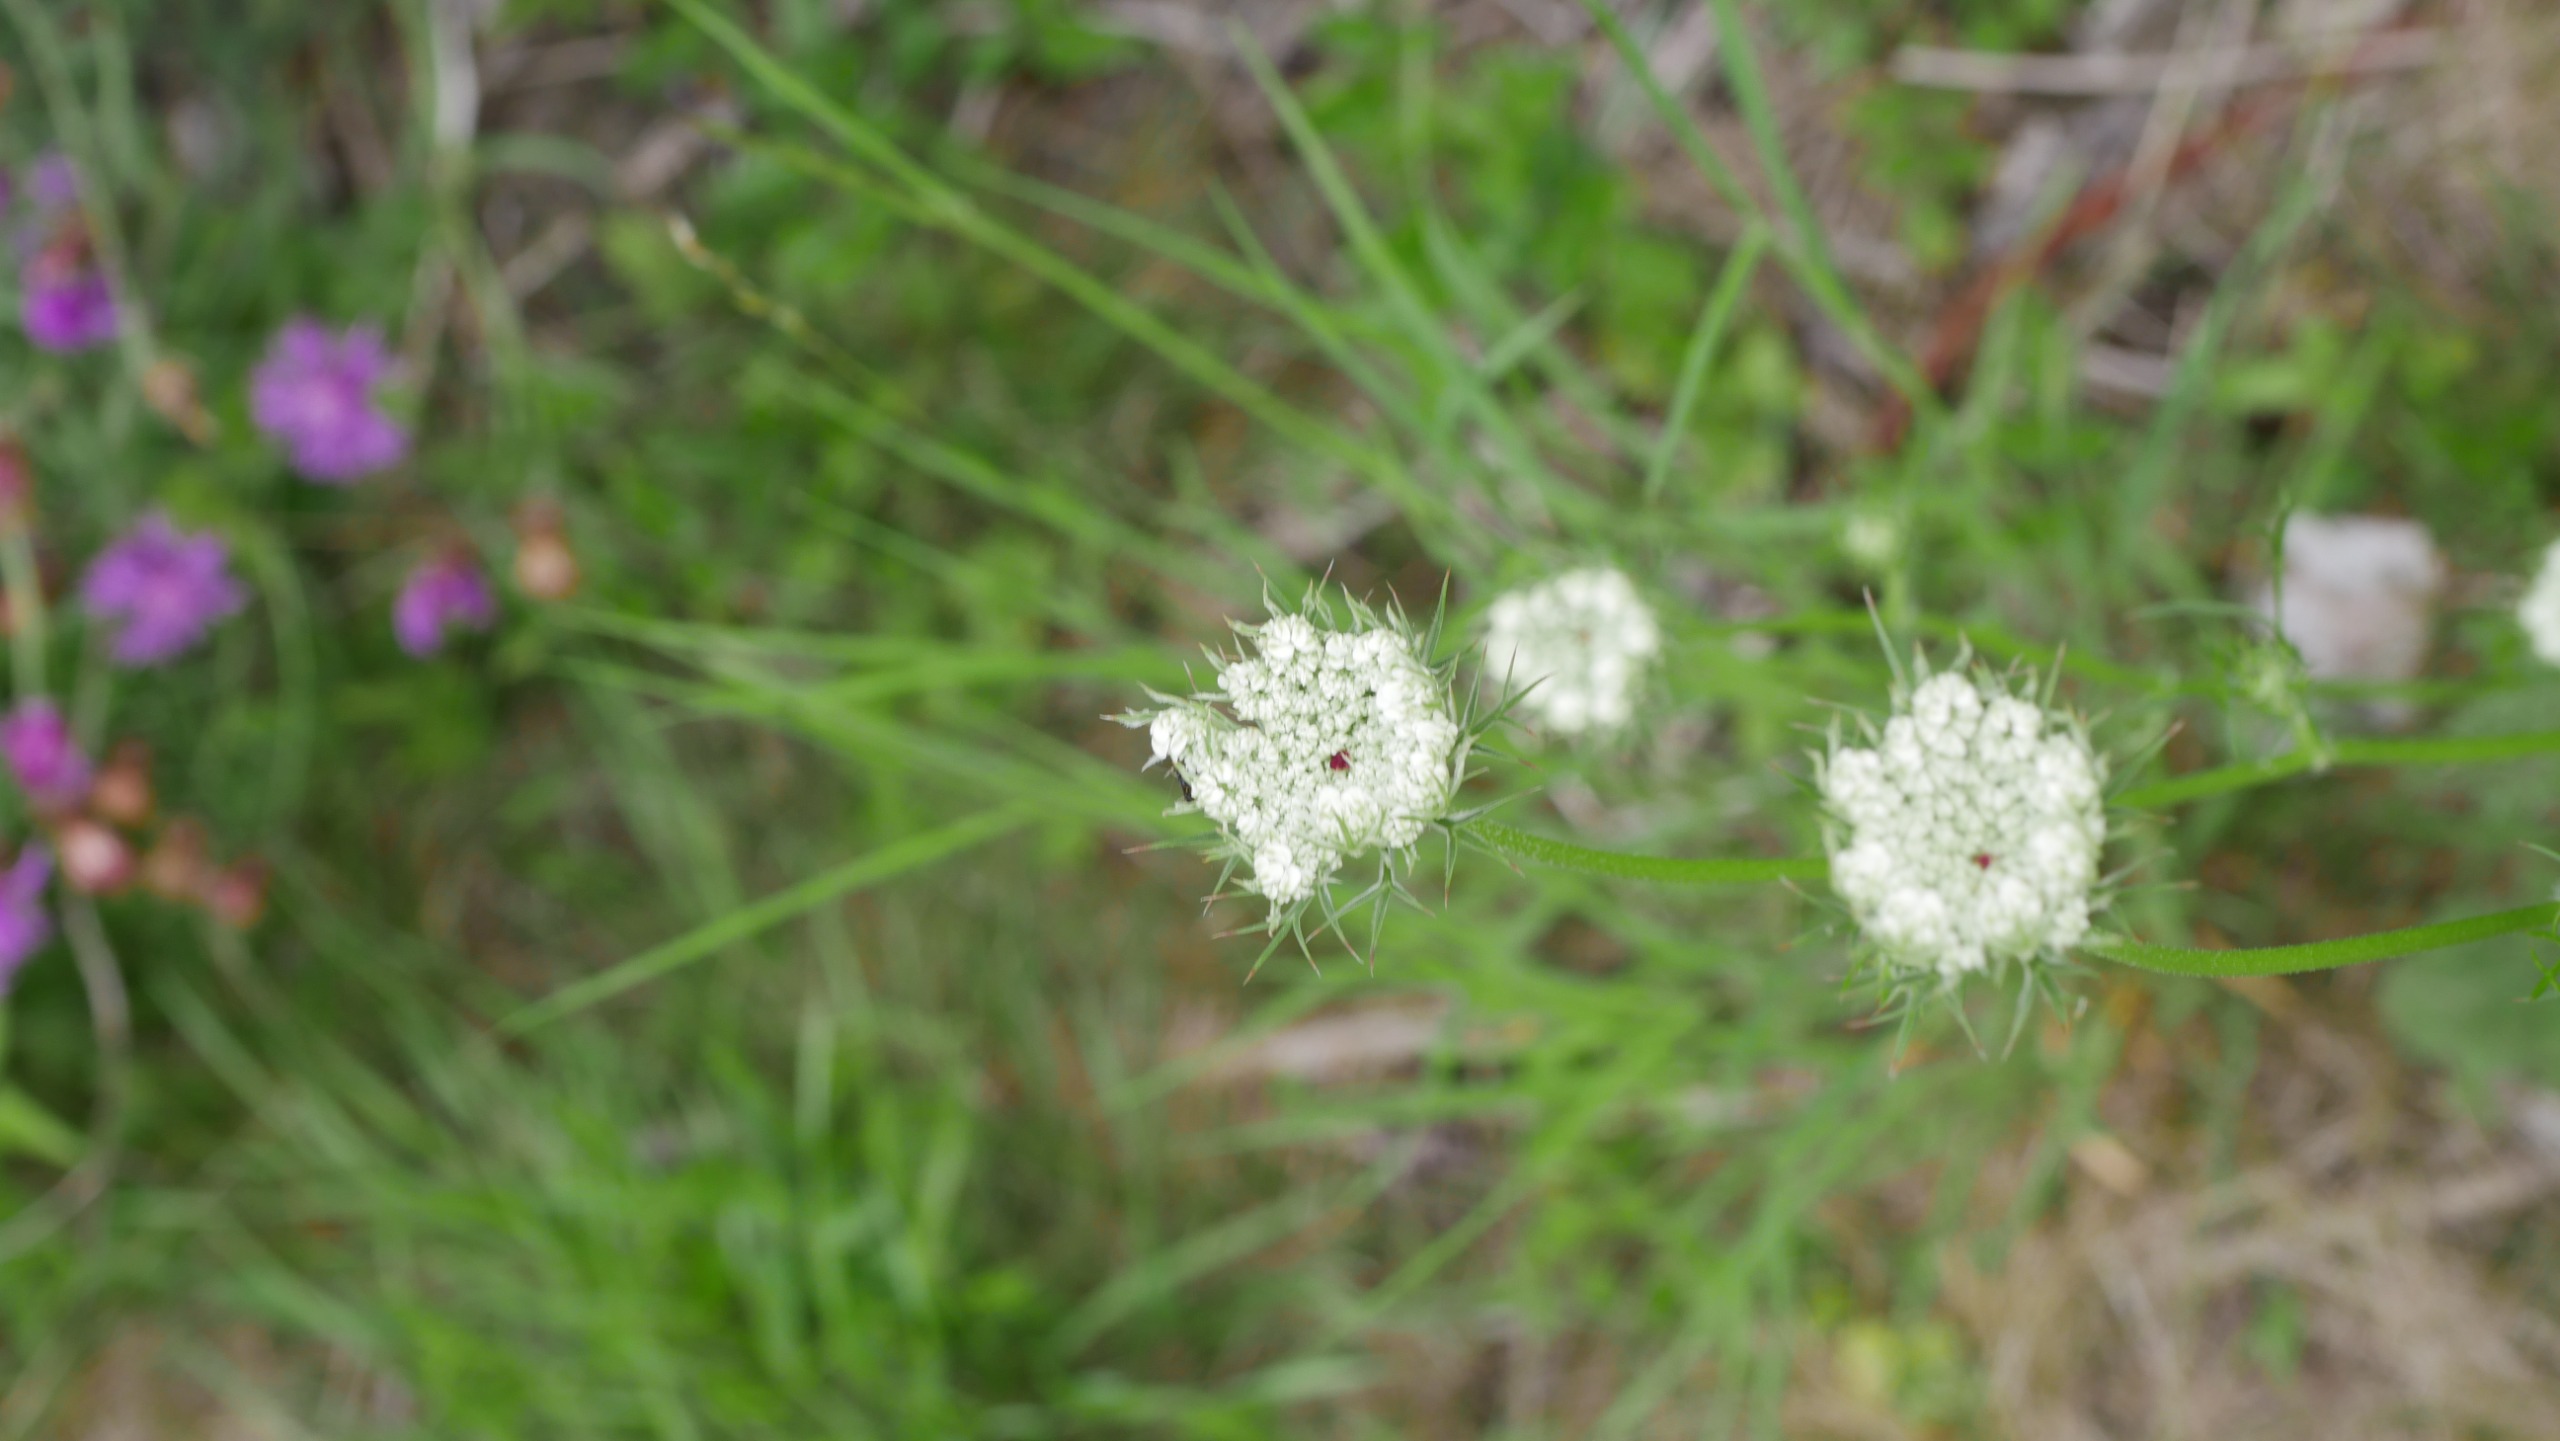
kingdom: Plantae
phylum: Tracheophyta
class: Magnoliopsida
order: Apiales
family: Apiaceae
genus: Daucus
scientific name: Daucus carota
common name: Gulerod
